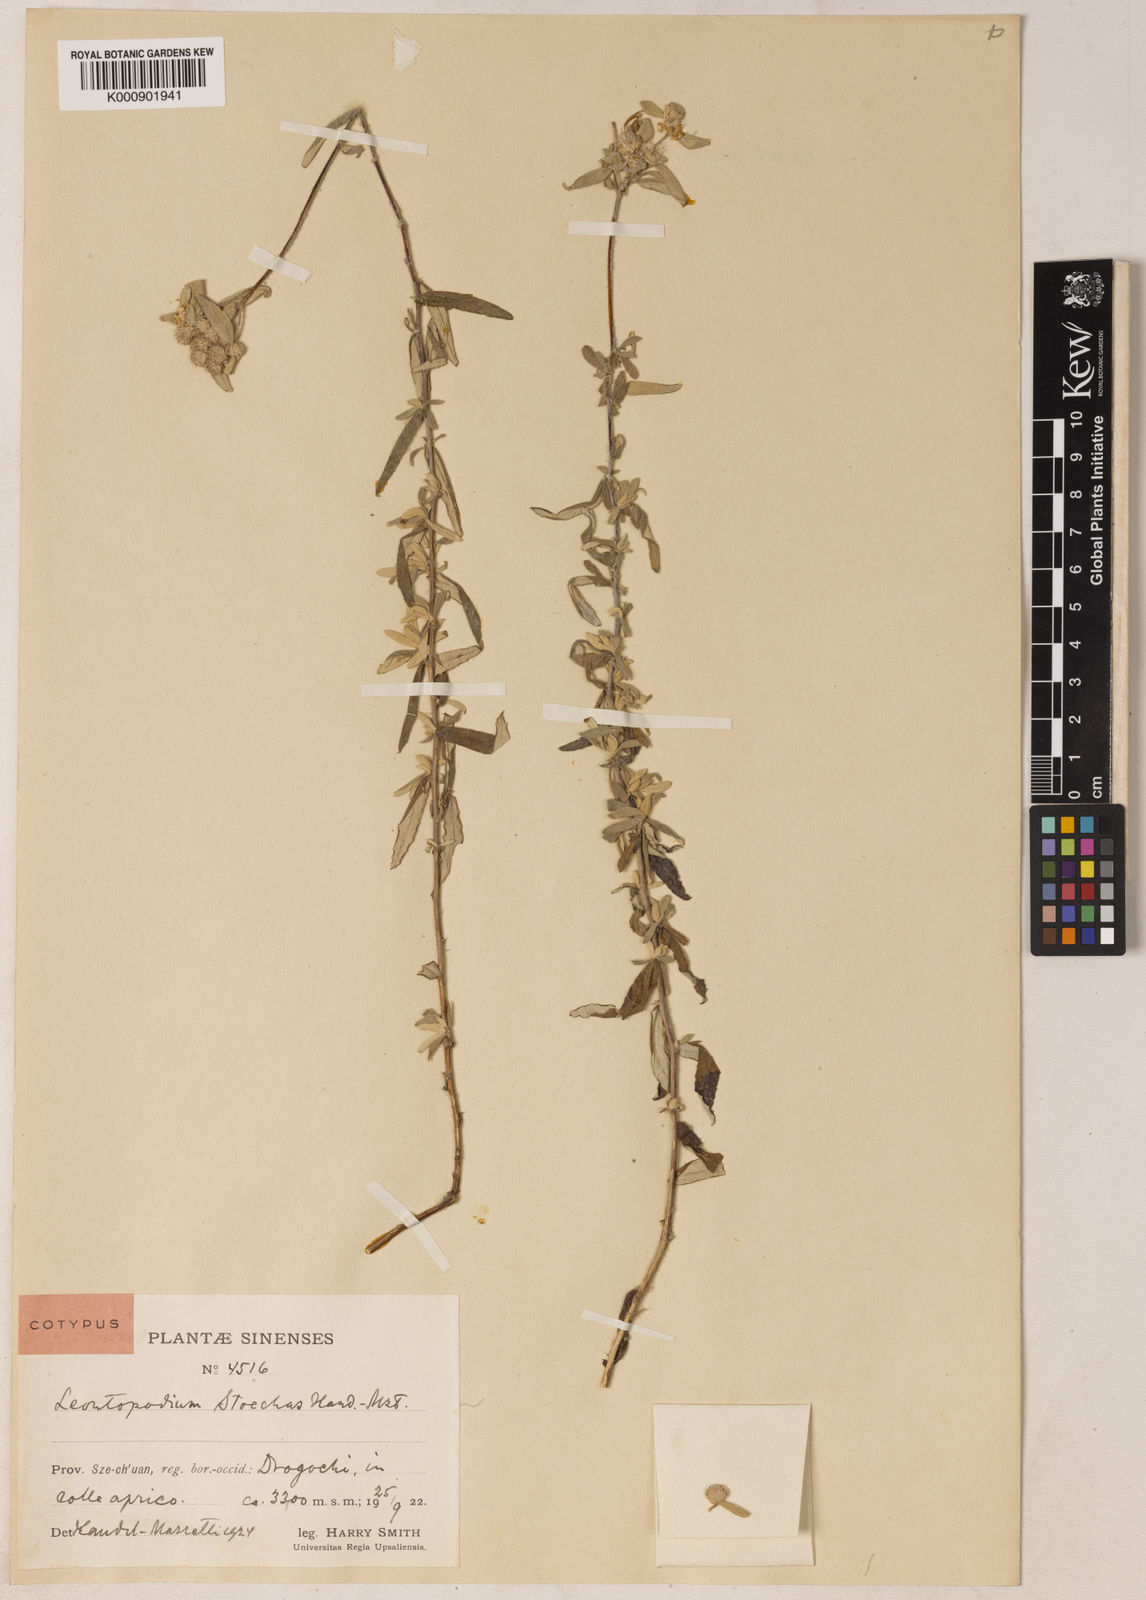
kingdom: Plantae
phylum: Tracheophyta
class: Magnoliopsida
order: Asterales
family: Asteraceae
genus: Leontopodium
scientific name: Leontopodium sinense
